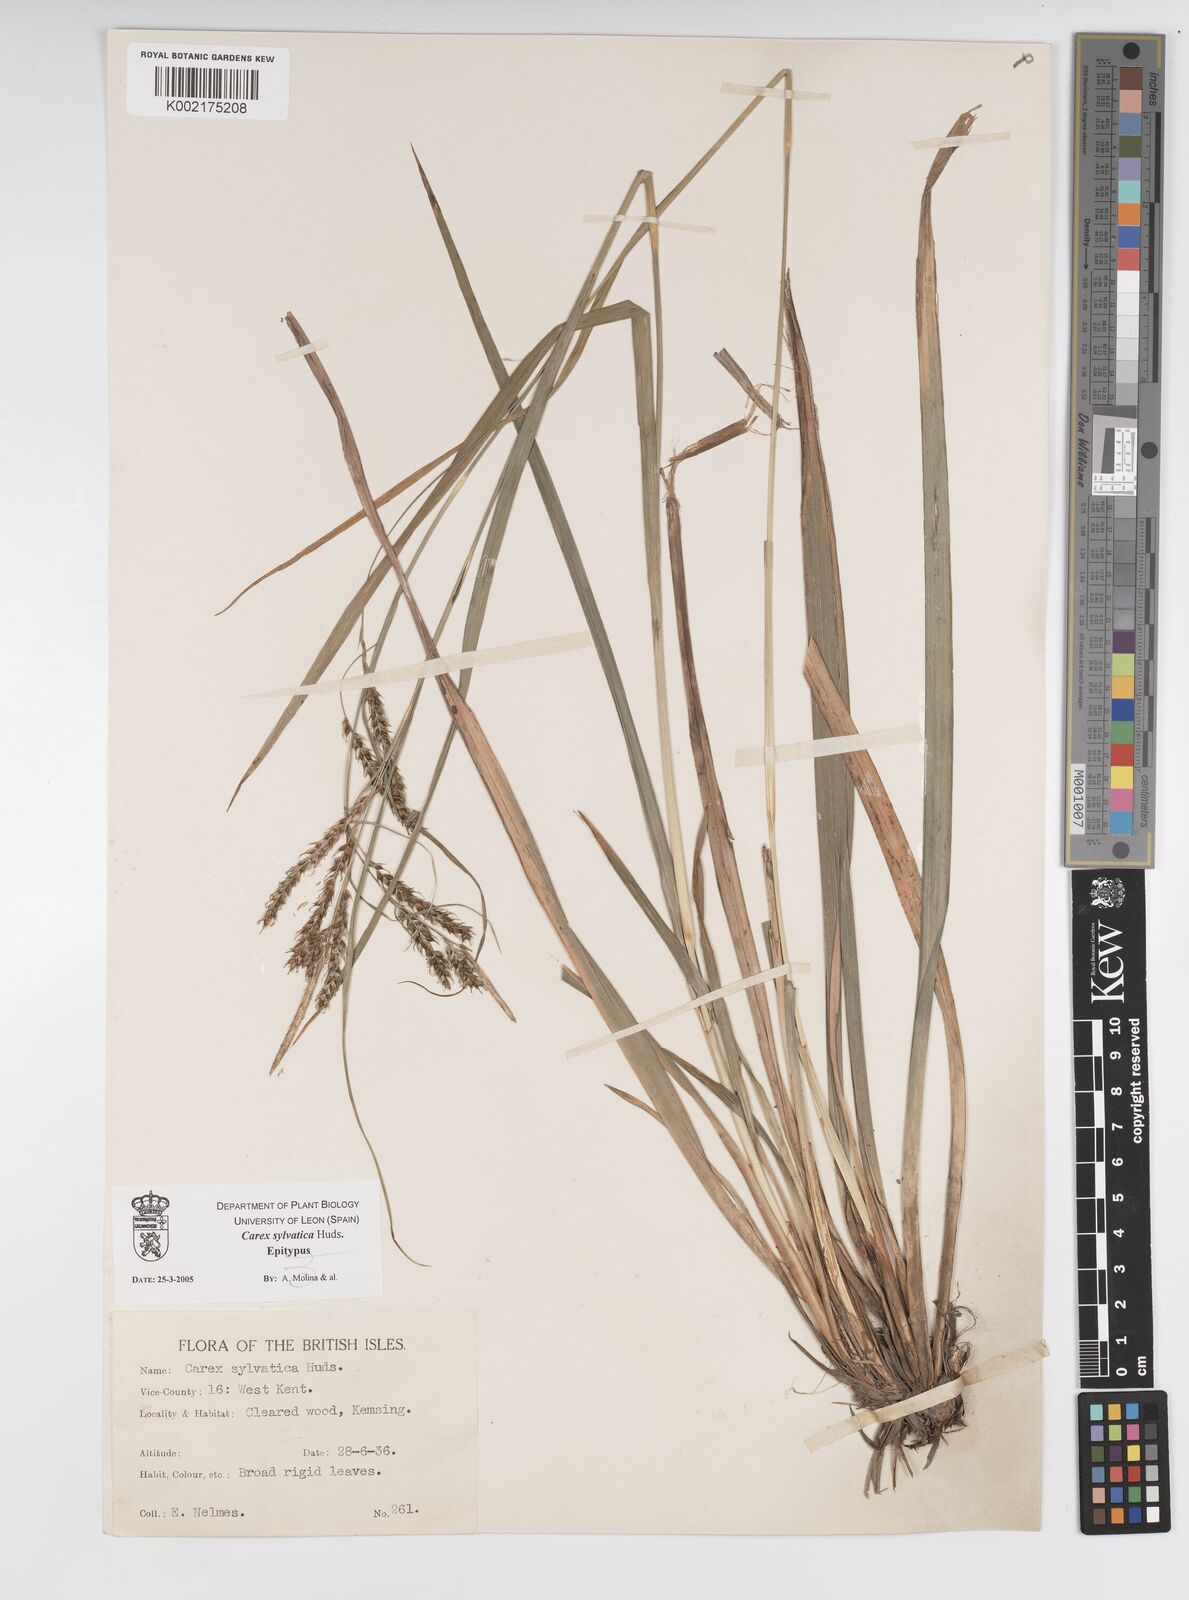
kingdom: Plantae
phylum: Tracheophyta
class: Liliopsida
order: Poales
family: Cyperaceae
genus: Carex
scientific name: Carex sylvatica
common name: Wood-sedge
